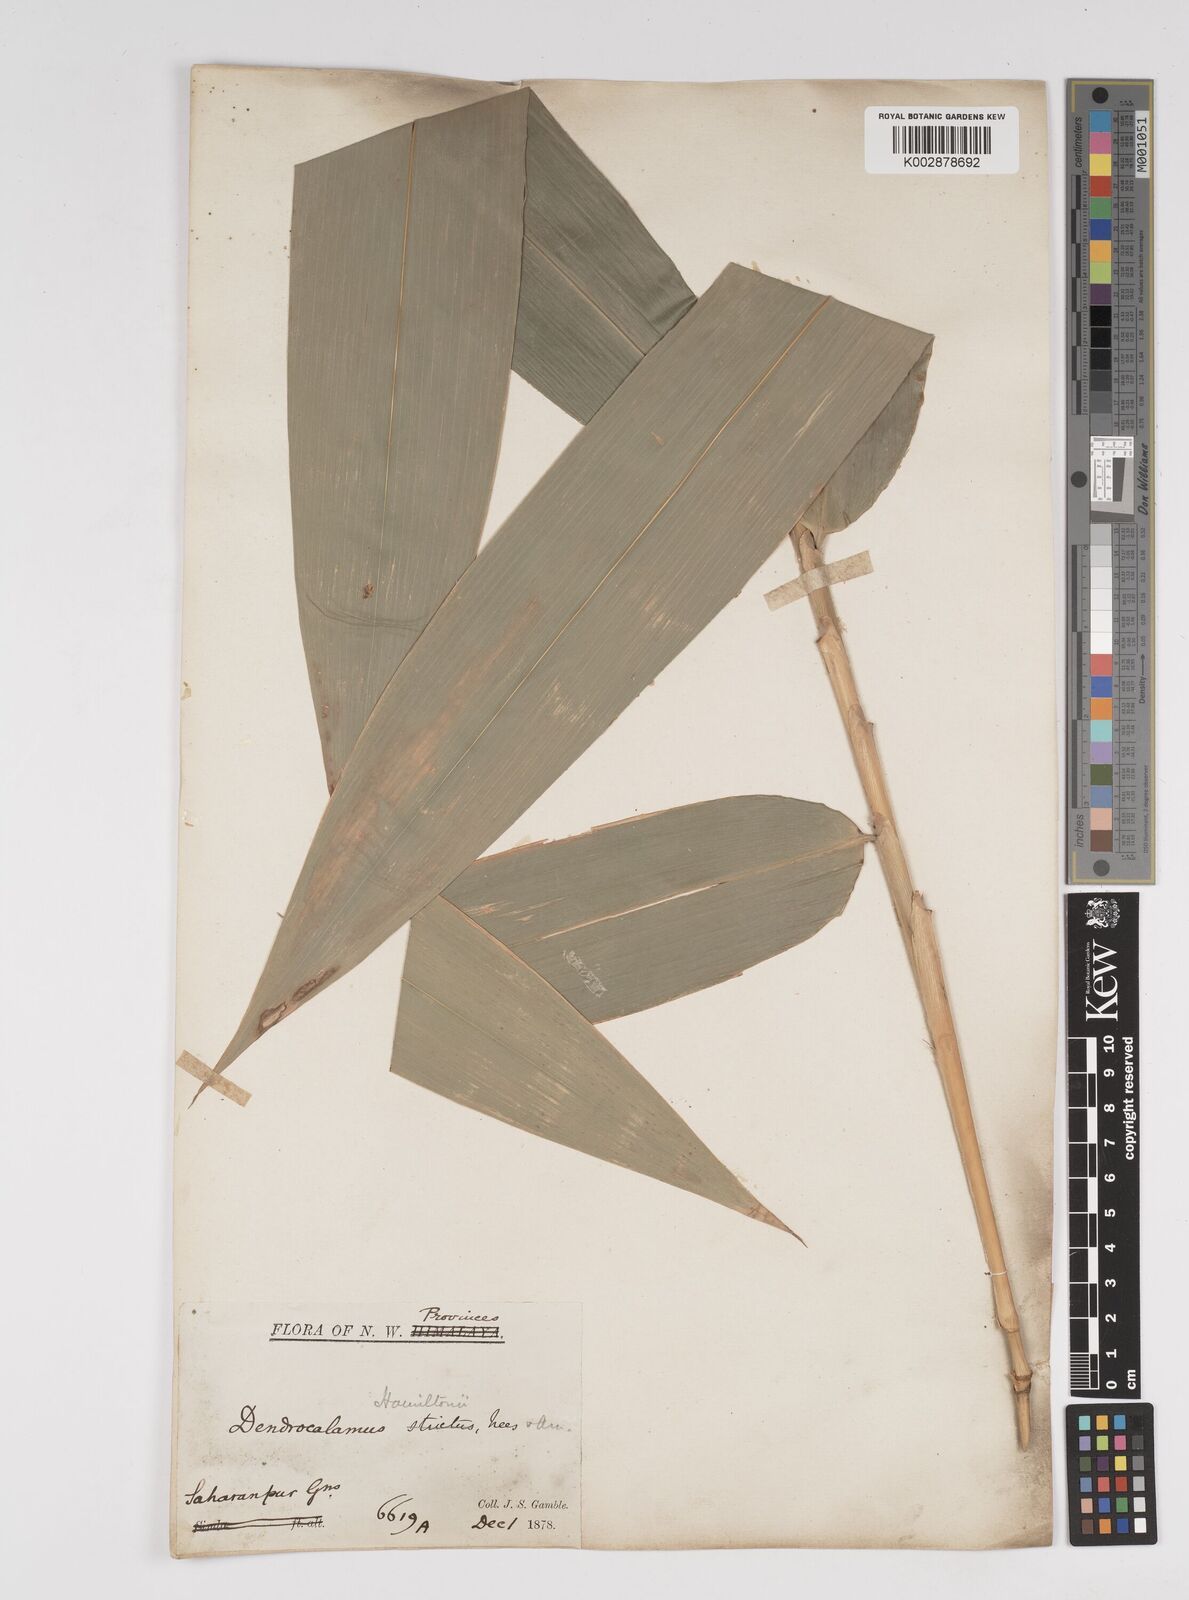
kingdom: Plantae
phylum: Tracheophyta
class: Liliopsida
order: Poales
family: Poaceae
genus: Dendrocalamus
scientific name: Dendrocalamus hamiltonii
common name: Tama bamboo
